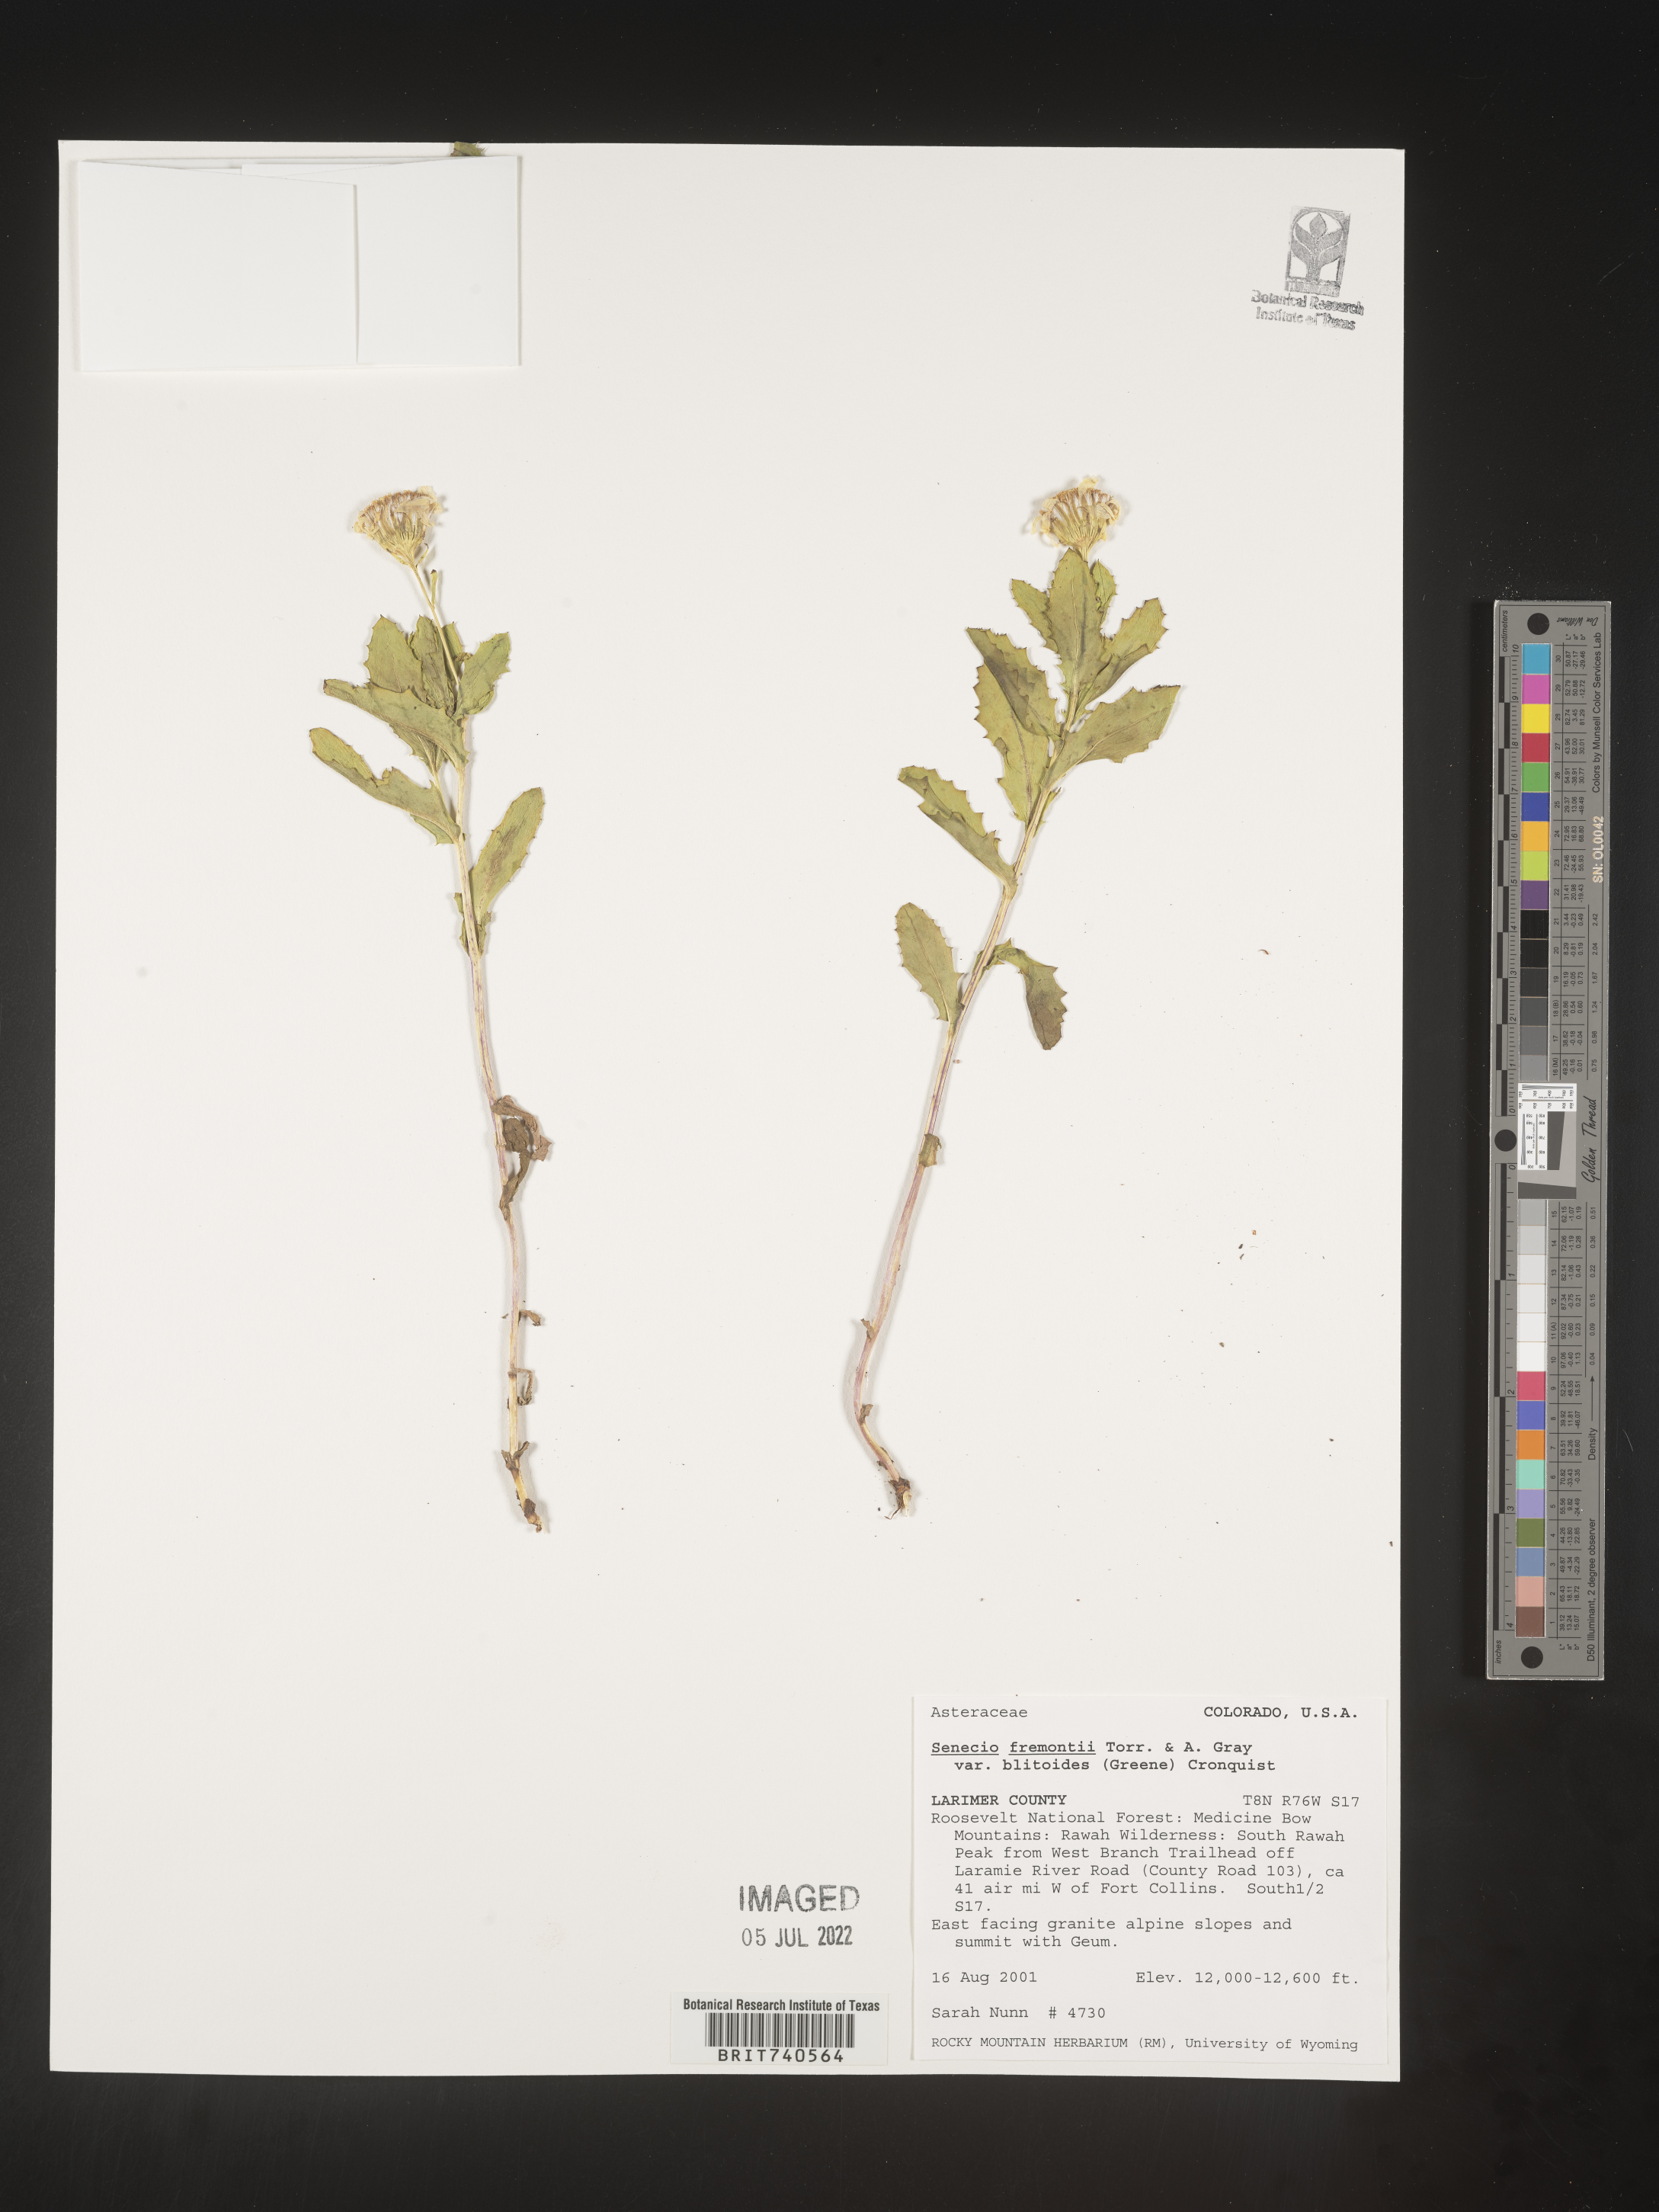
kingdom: Plantae
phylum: Tracheophyta
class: Magnoliopsida
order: Asterales
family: Asteraceae
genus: Senecio
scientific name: Senecio blitoides
